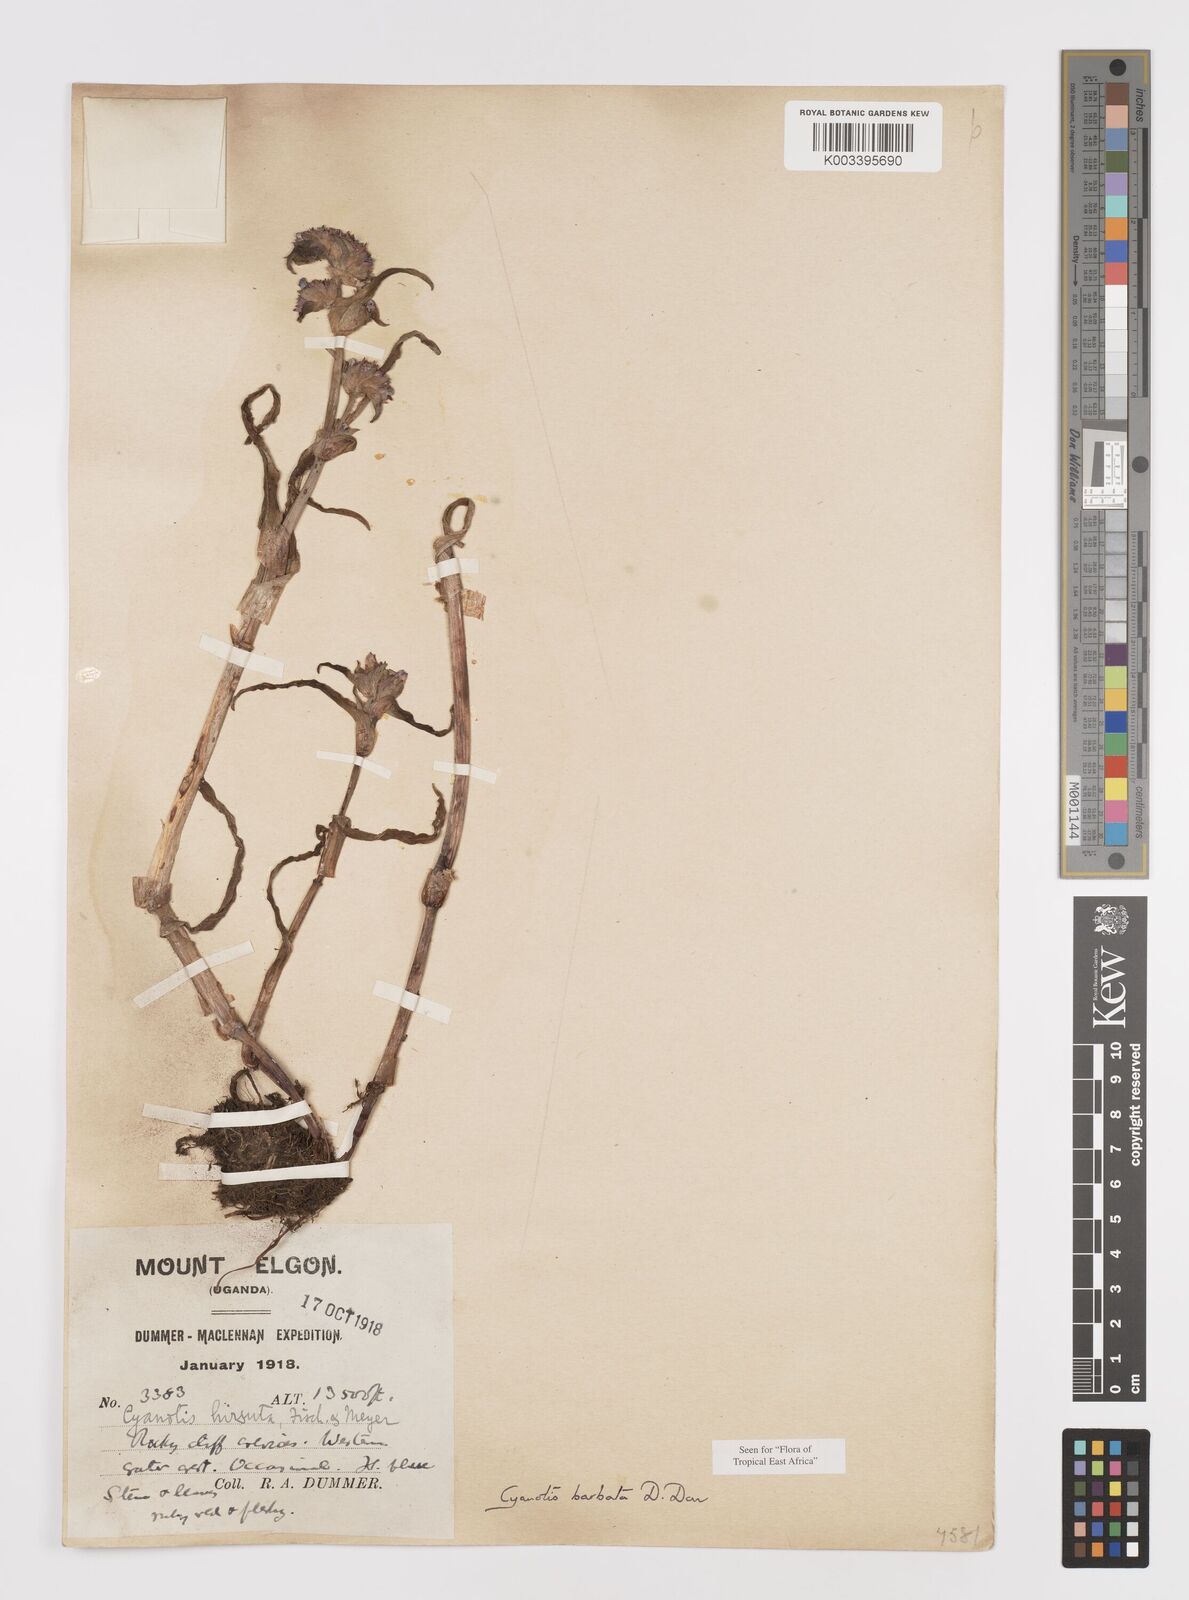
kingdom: Plantae
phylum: Tracheophyta
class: Liliopsida
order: Commelinales
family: Commelinaceae
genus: Cyanotis
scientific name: Cyanotis vaga
